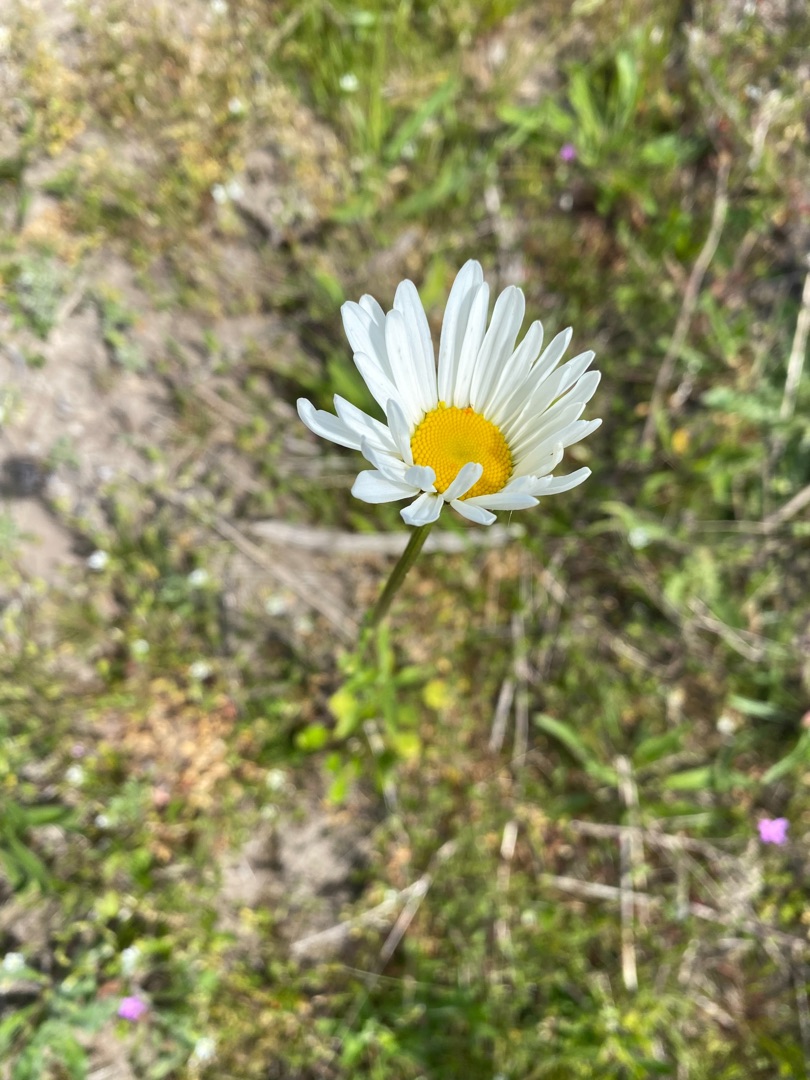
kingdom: Plantae
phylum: Tracheophyta
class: Magnoliopsida
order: Asterales
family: Asteraceae
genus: Leucanthemum
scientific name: Leucanthemum vulgare
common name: Hvid okseøje
